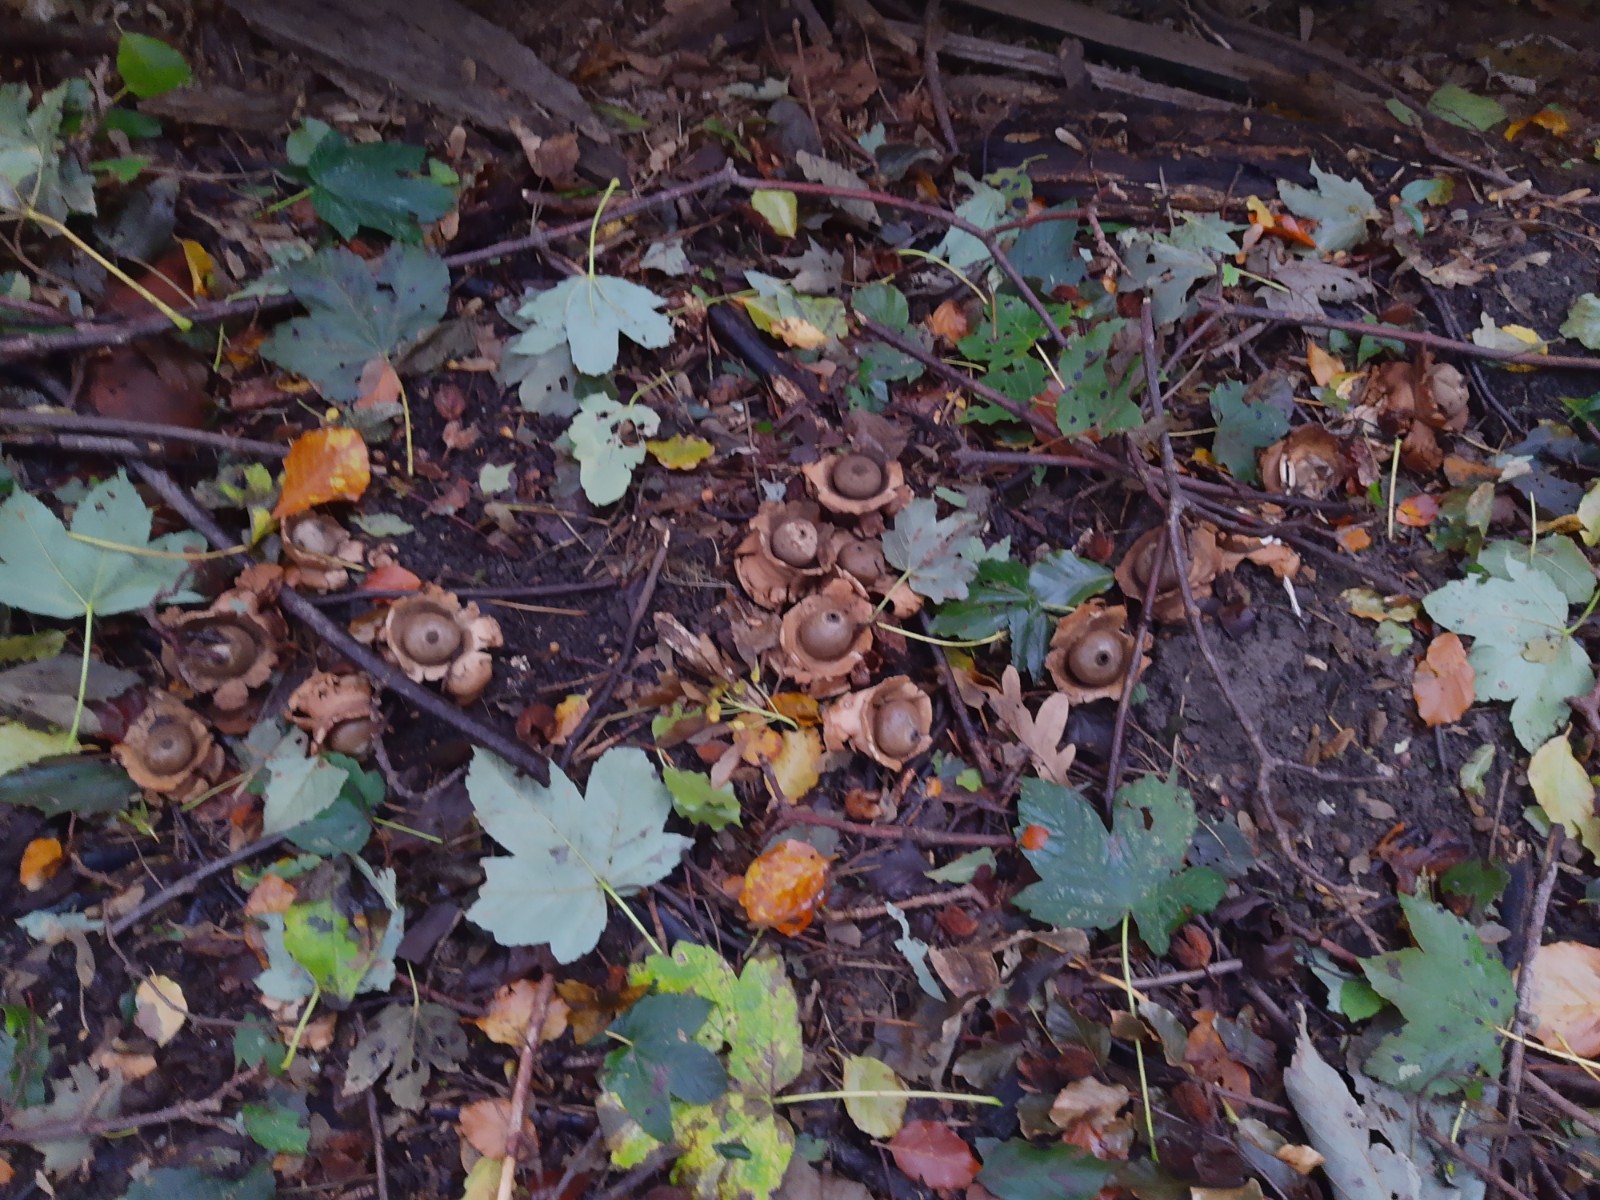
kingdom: Fungi
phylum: Basidiomycota
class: Agaricomycetes
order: Geastrales
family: Geastraceae
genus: Geastrum
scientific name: Geastrum michelianum
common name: kødet stjernebold
